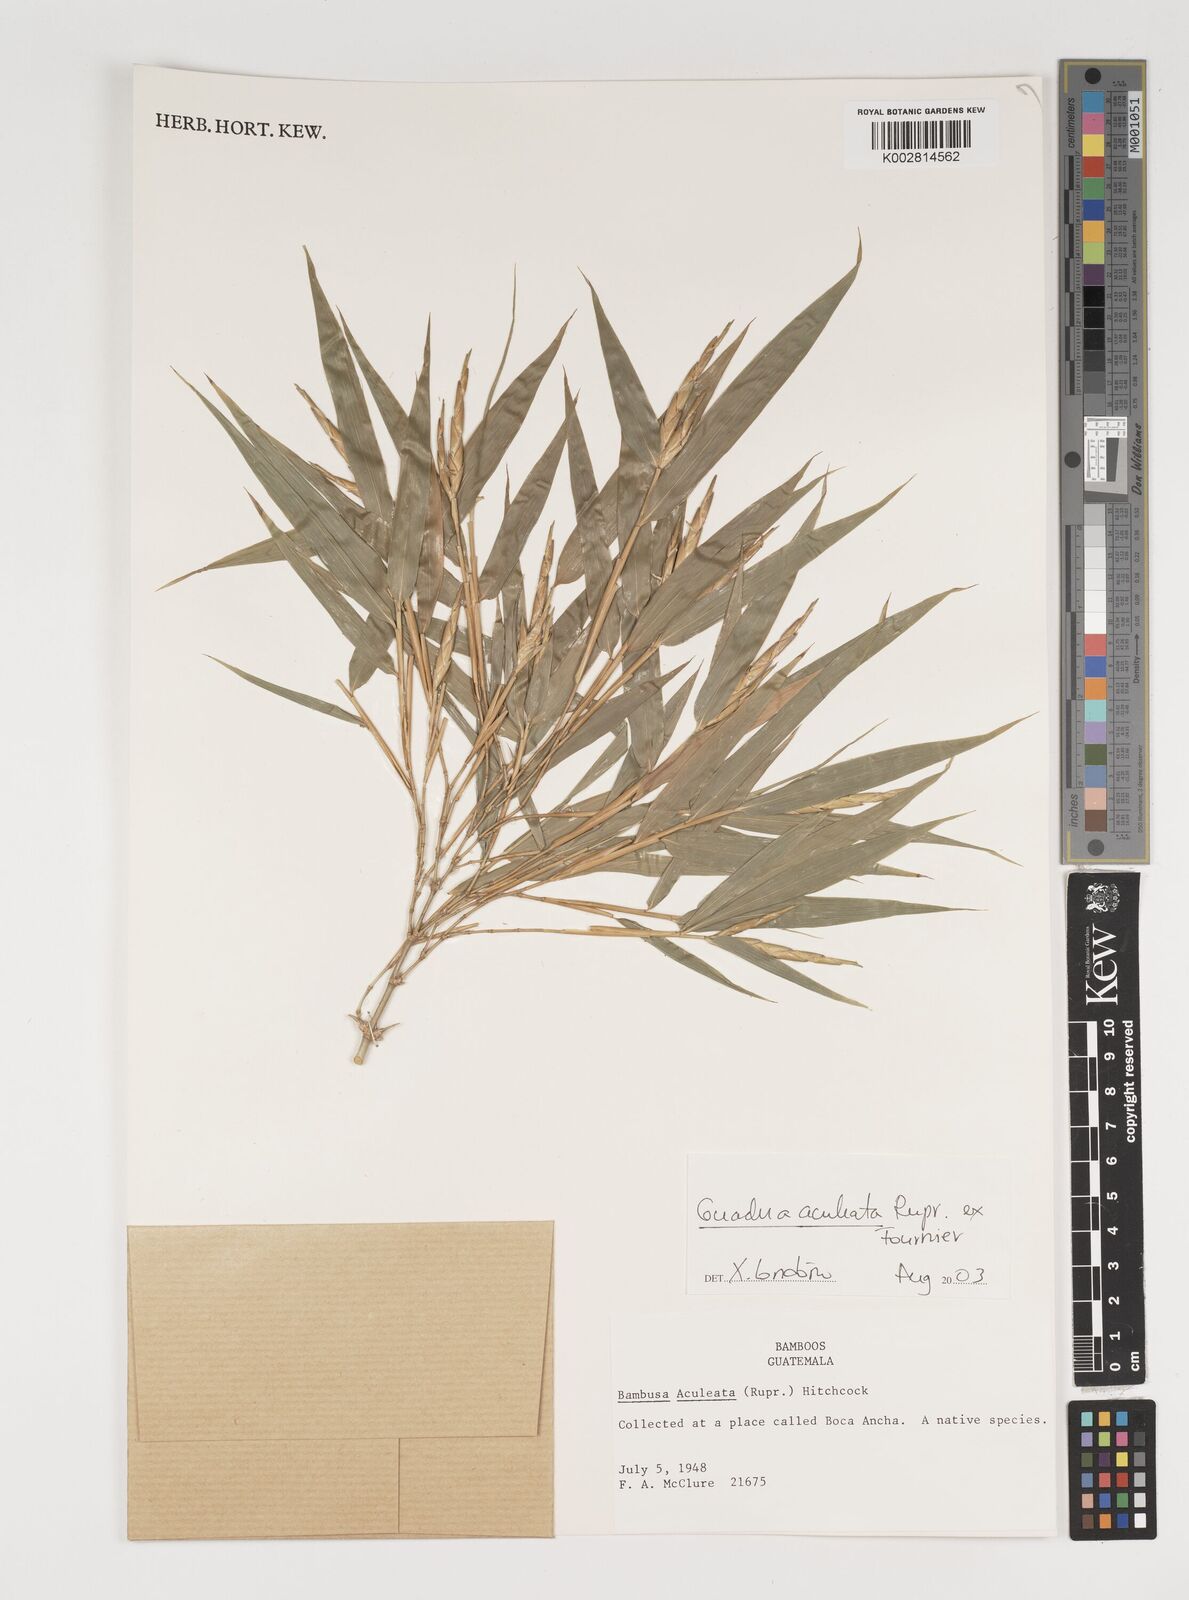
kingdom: Plantae
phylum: Tracheophyta
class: Liliopsida
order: Poales
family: Poaceae
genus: Guadua
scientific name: Guadua aculeata
